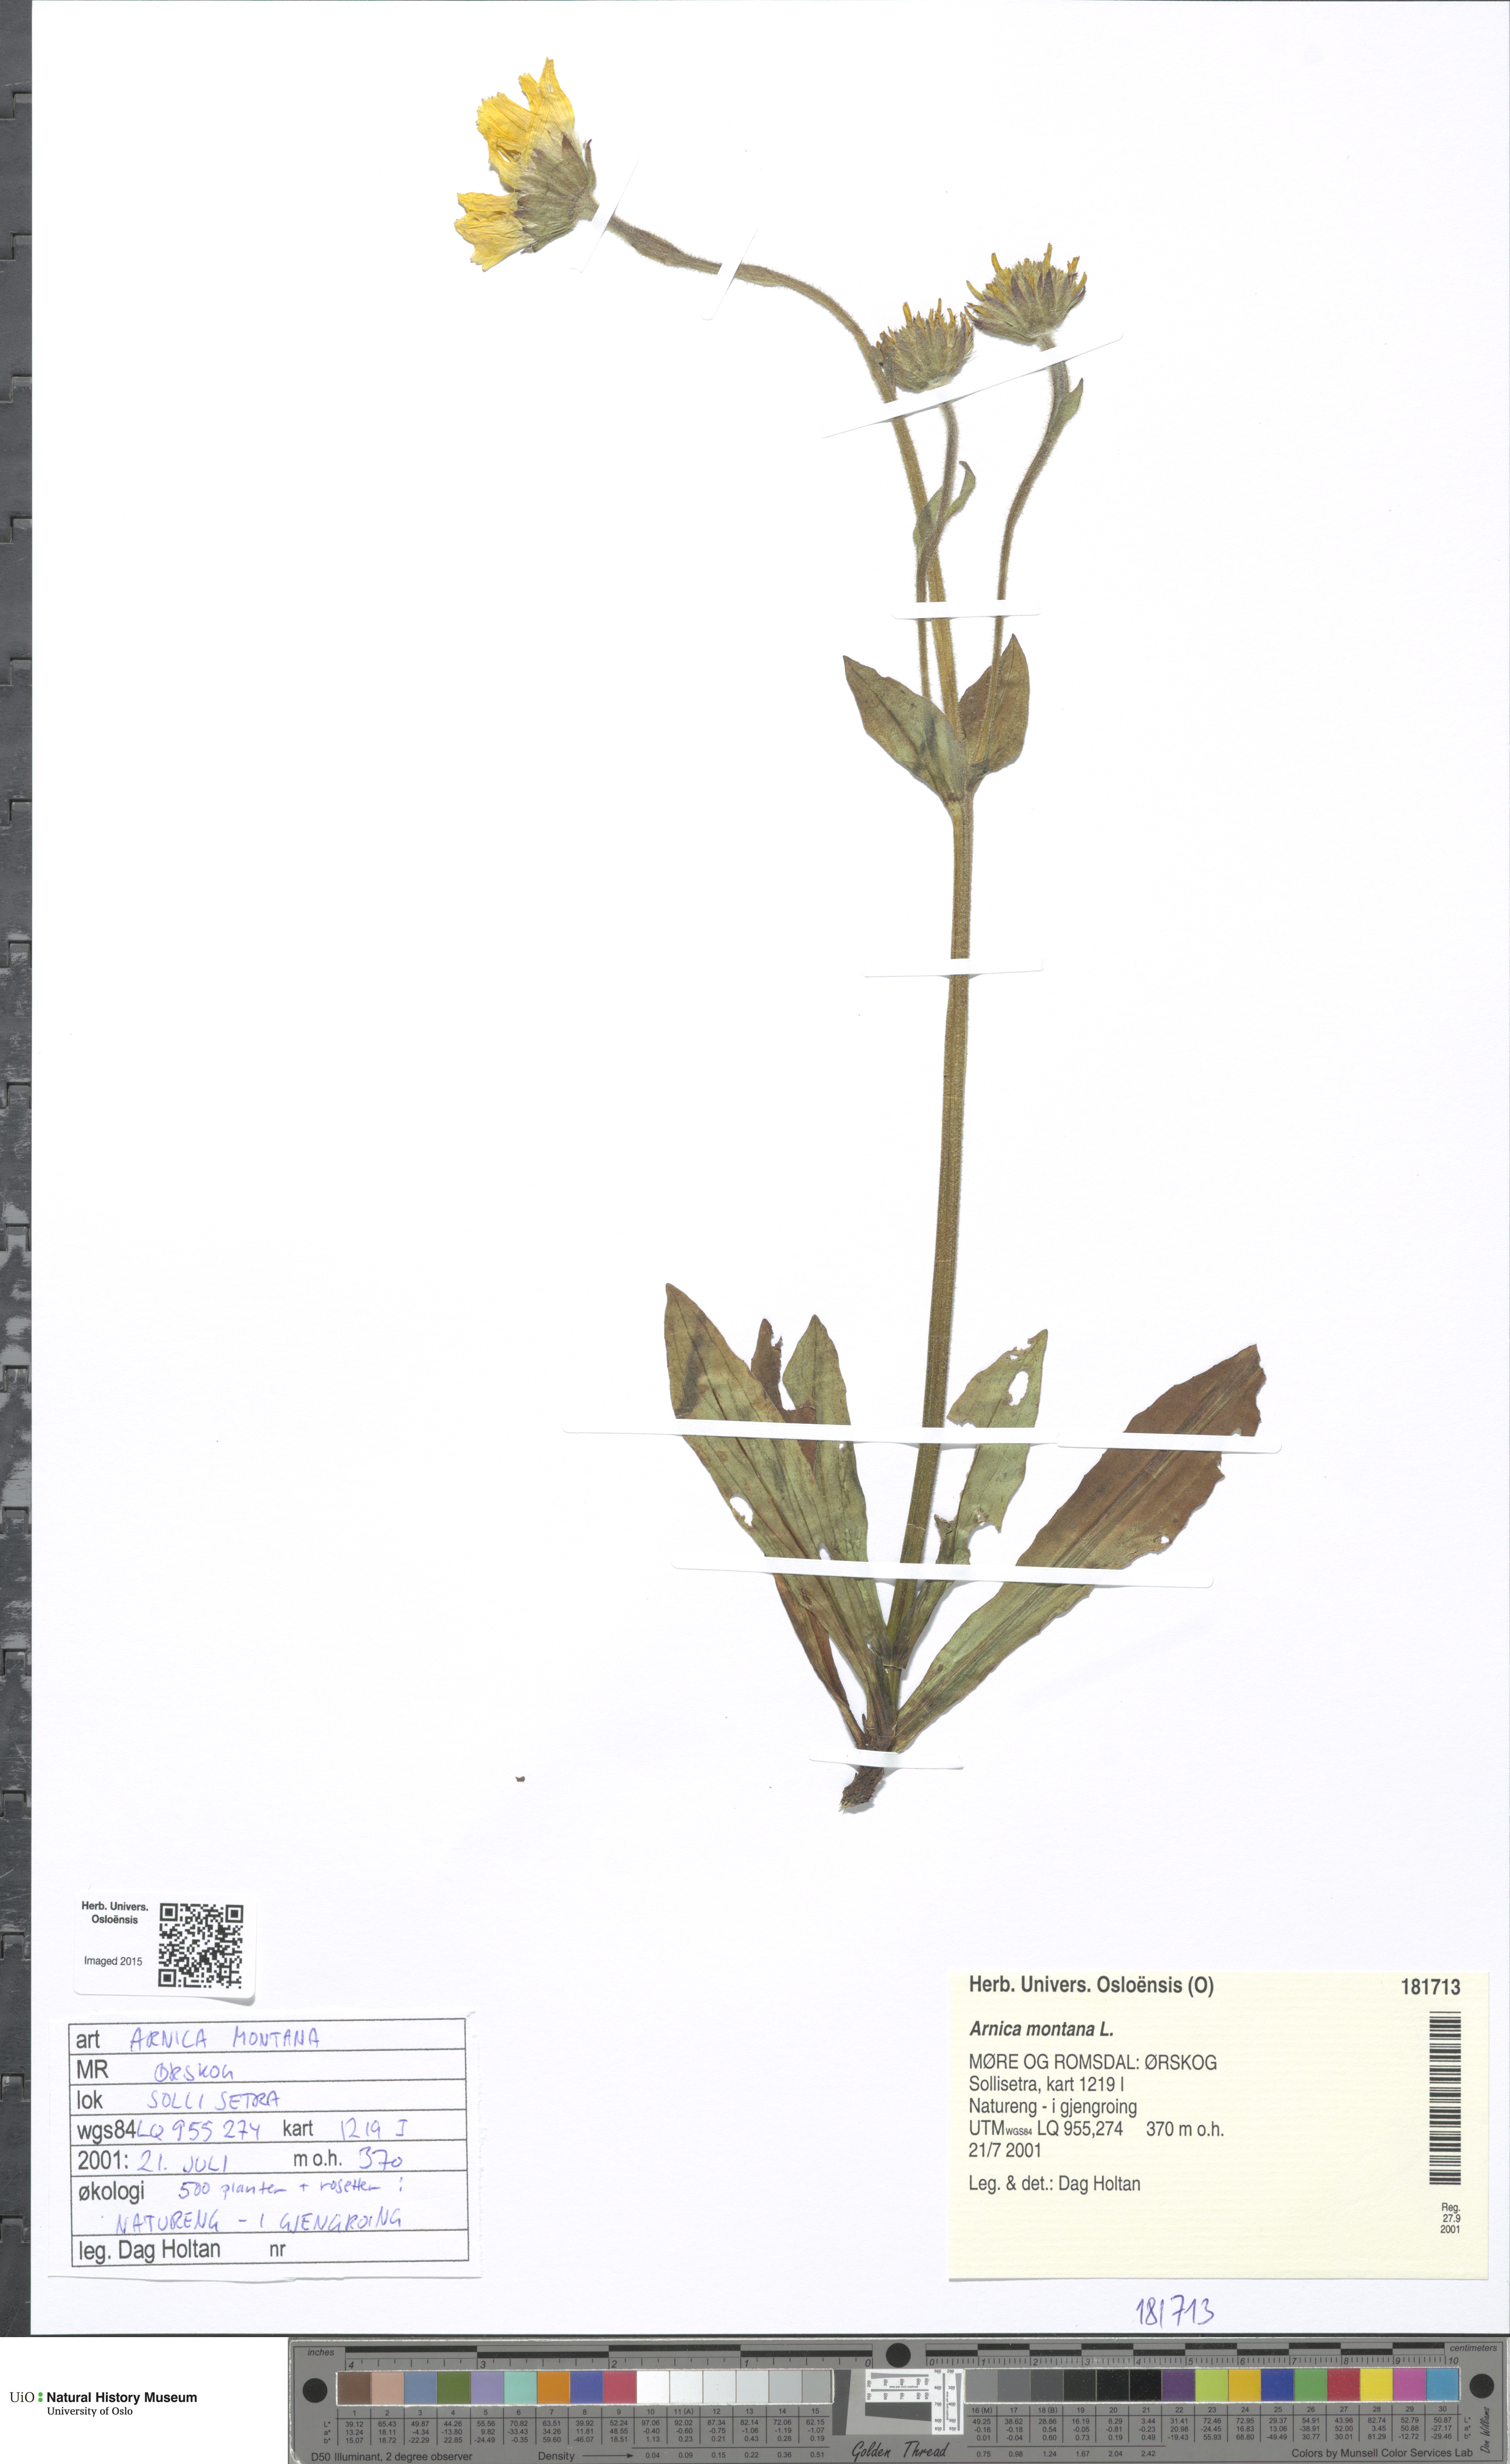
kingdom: Plantae
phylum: Tracheophyta
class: Magnoliopsida
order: Asterales
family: Asteraceae
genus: Arnica
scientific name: Arnica montana
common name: Leopard's bane
